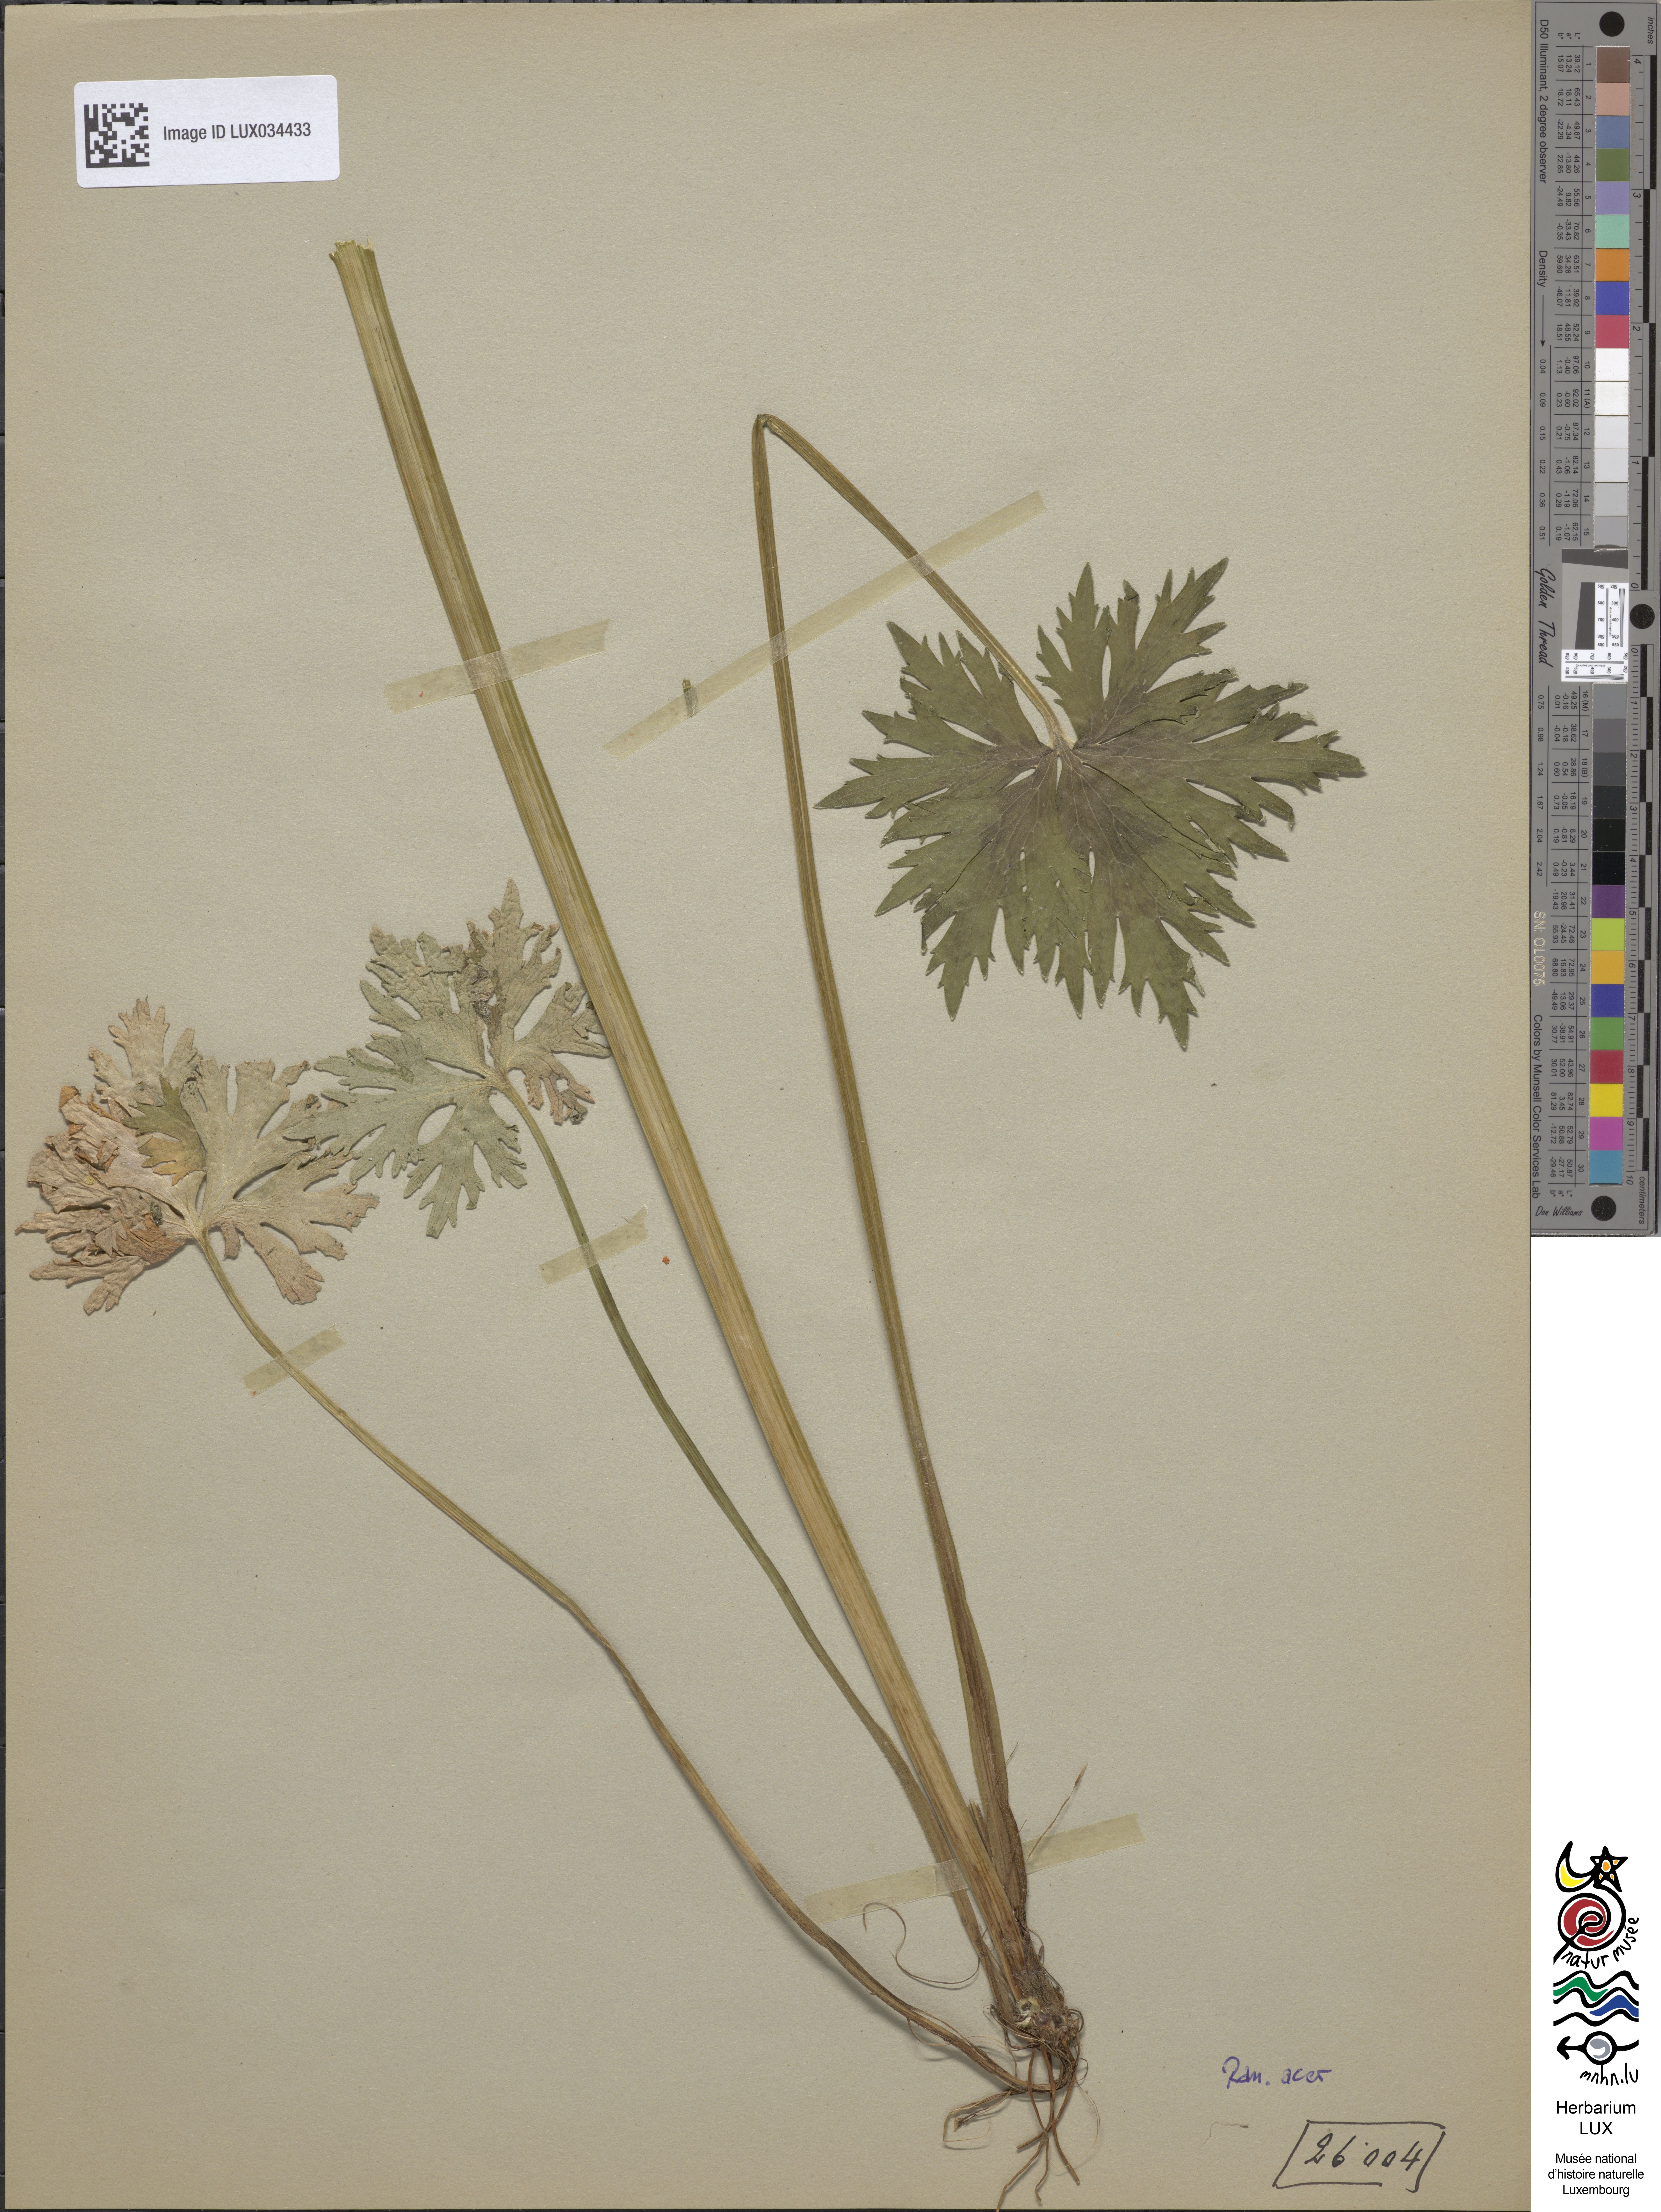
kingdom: Plantae
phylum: Tracheophyta
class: Magnoliopsida
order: Ranunculales
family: Ranunculaceae
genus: Ranunculus
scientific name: Ranunculus acris
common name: Meadow buttercup
